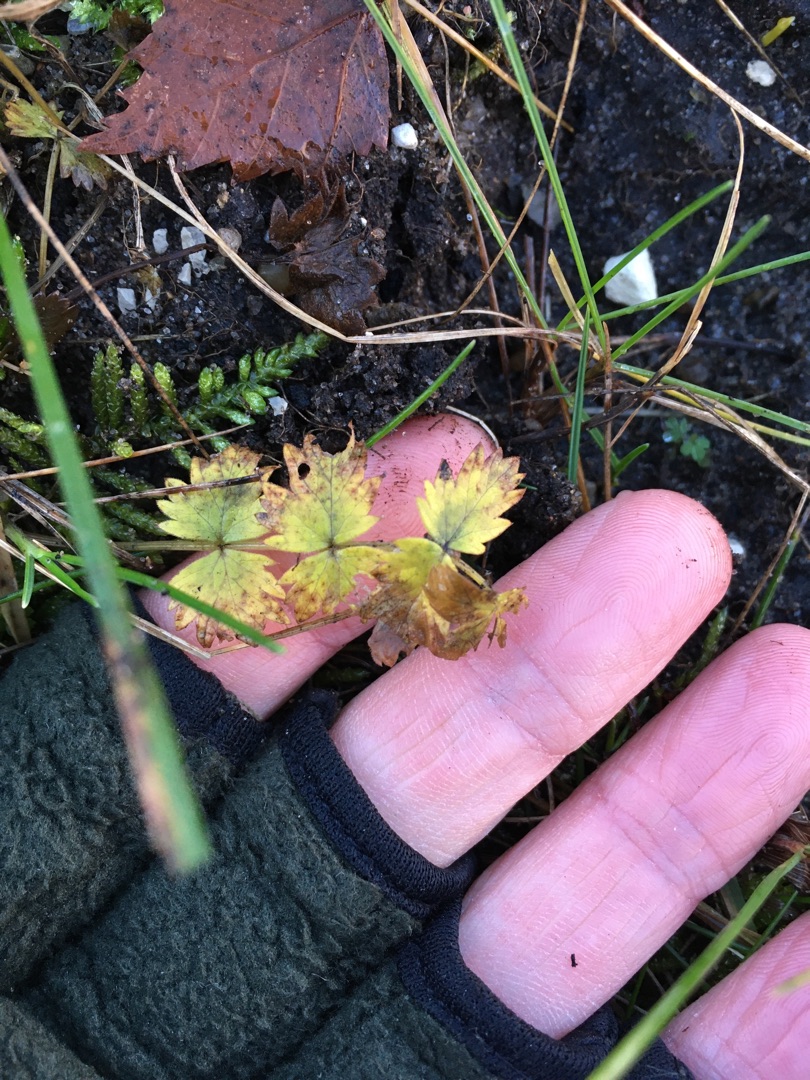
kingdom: Plantae
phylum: Tracheophyta
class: Magnoliopsida
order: Apiales
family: Apiaceae
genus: Pimpinella
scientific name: Pimpinella saxifraga
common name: Almindelig pimpinelle
